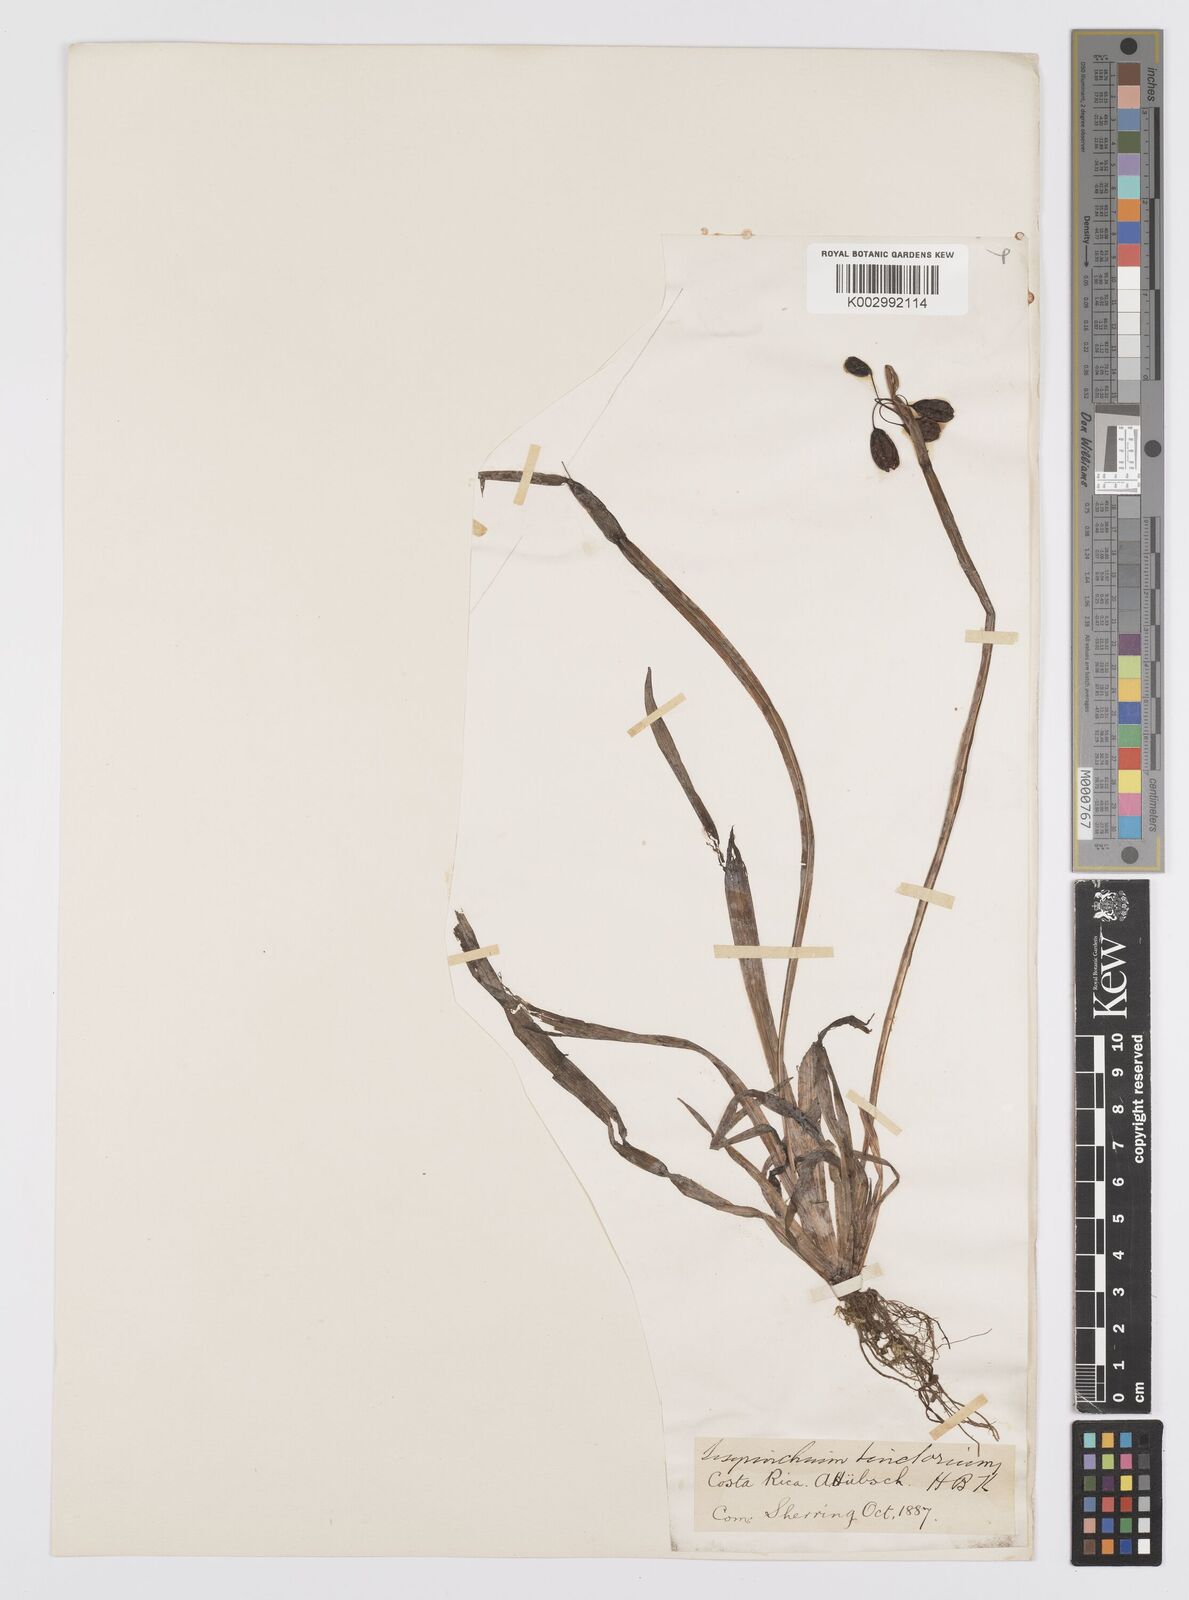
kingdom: Plantae
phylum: Tracheophyta
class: Liliopsida
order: Asparagales
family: Iridaceae
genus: Sisyrinchium
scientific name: Sisyrinchium tinctorium
